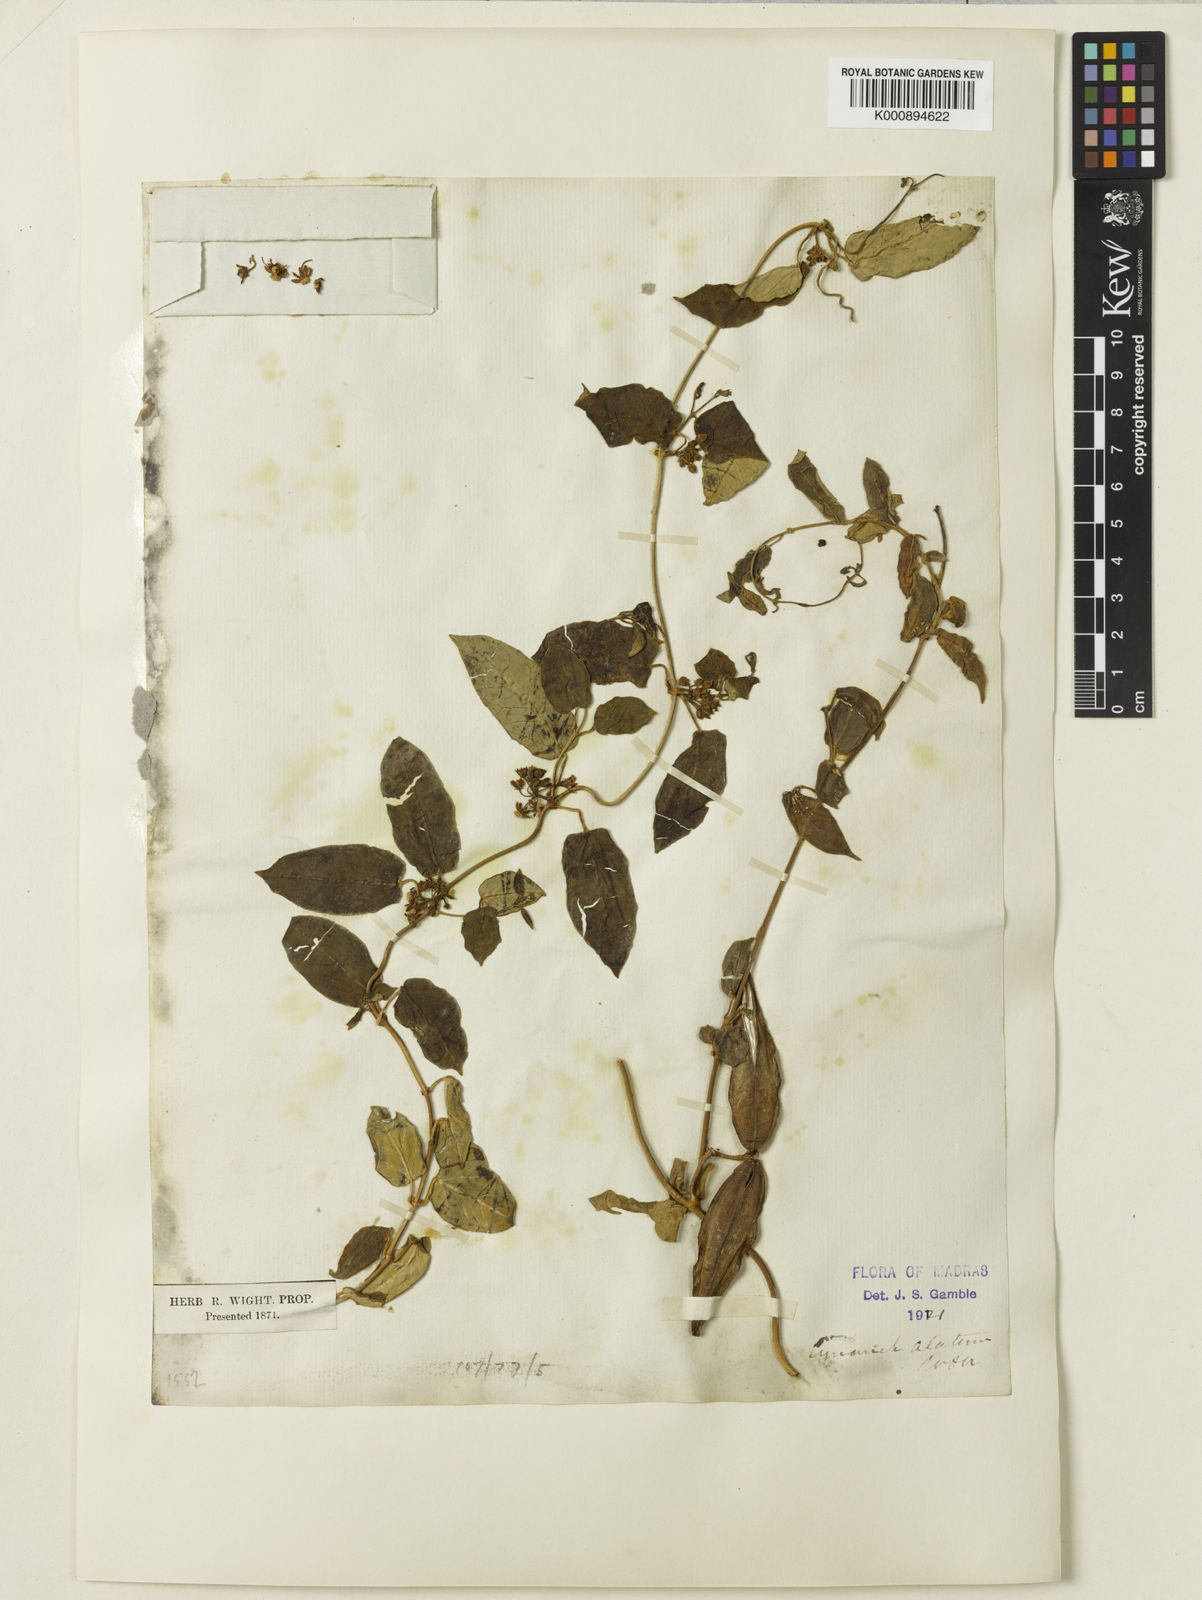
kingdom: Plantae
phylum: Tracheophyta
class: Magnoliopsida
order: Gentianales
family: Apocynaceae
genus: Cynanchum
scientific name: Cynanchum alatum
